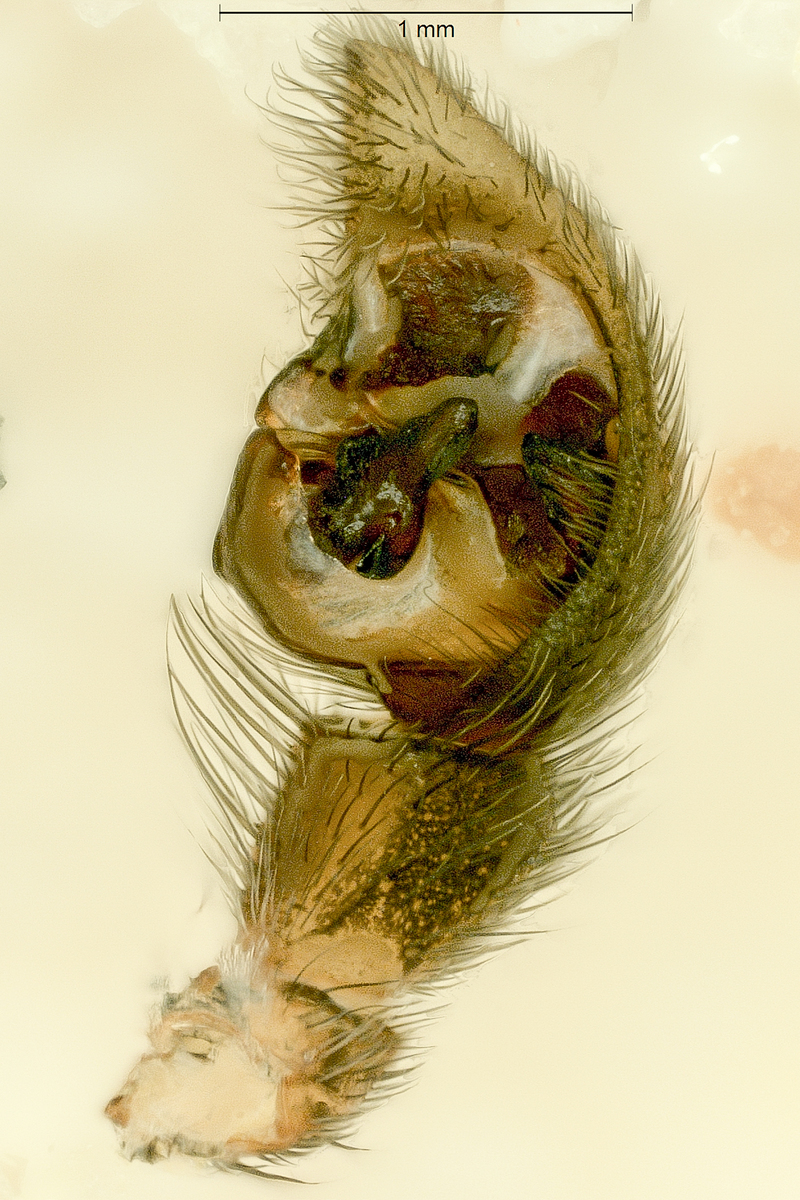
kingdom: Animalia
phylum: Arthropoda
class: Arachnida
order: Araneae
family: Lycosidae
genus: Pardosa
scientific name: Pardosa palustris
